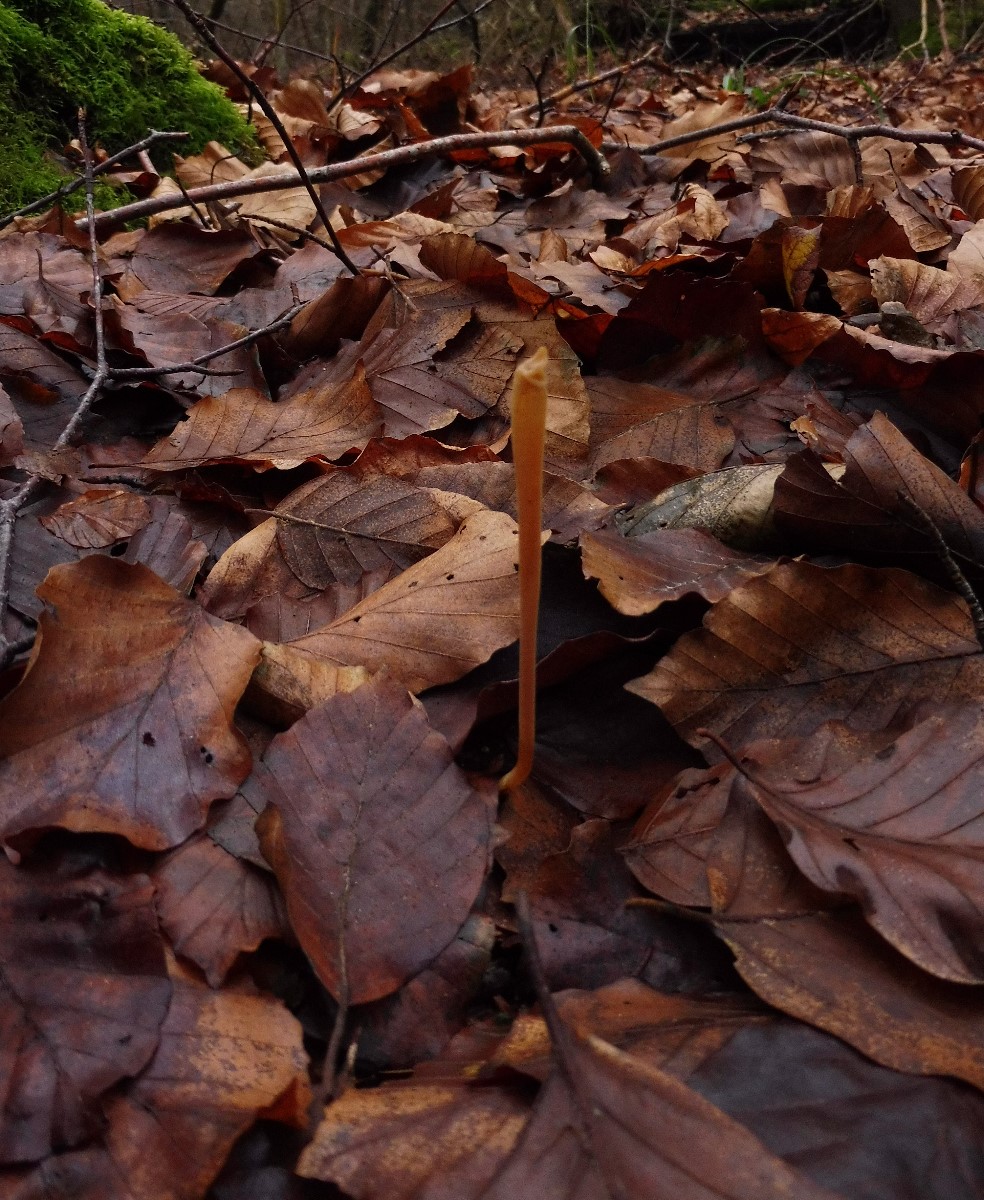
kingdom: Fungi
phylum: Basidiomycota
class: Agaricomycetes
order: Agaricales
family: Typhulaceae
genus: Typhula
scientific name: Typhula fistulosa
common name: pibet rørkølle
